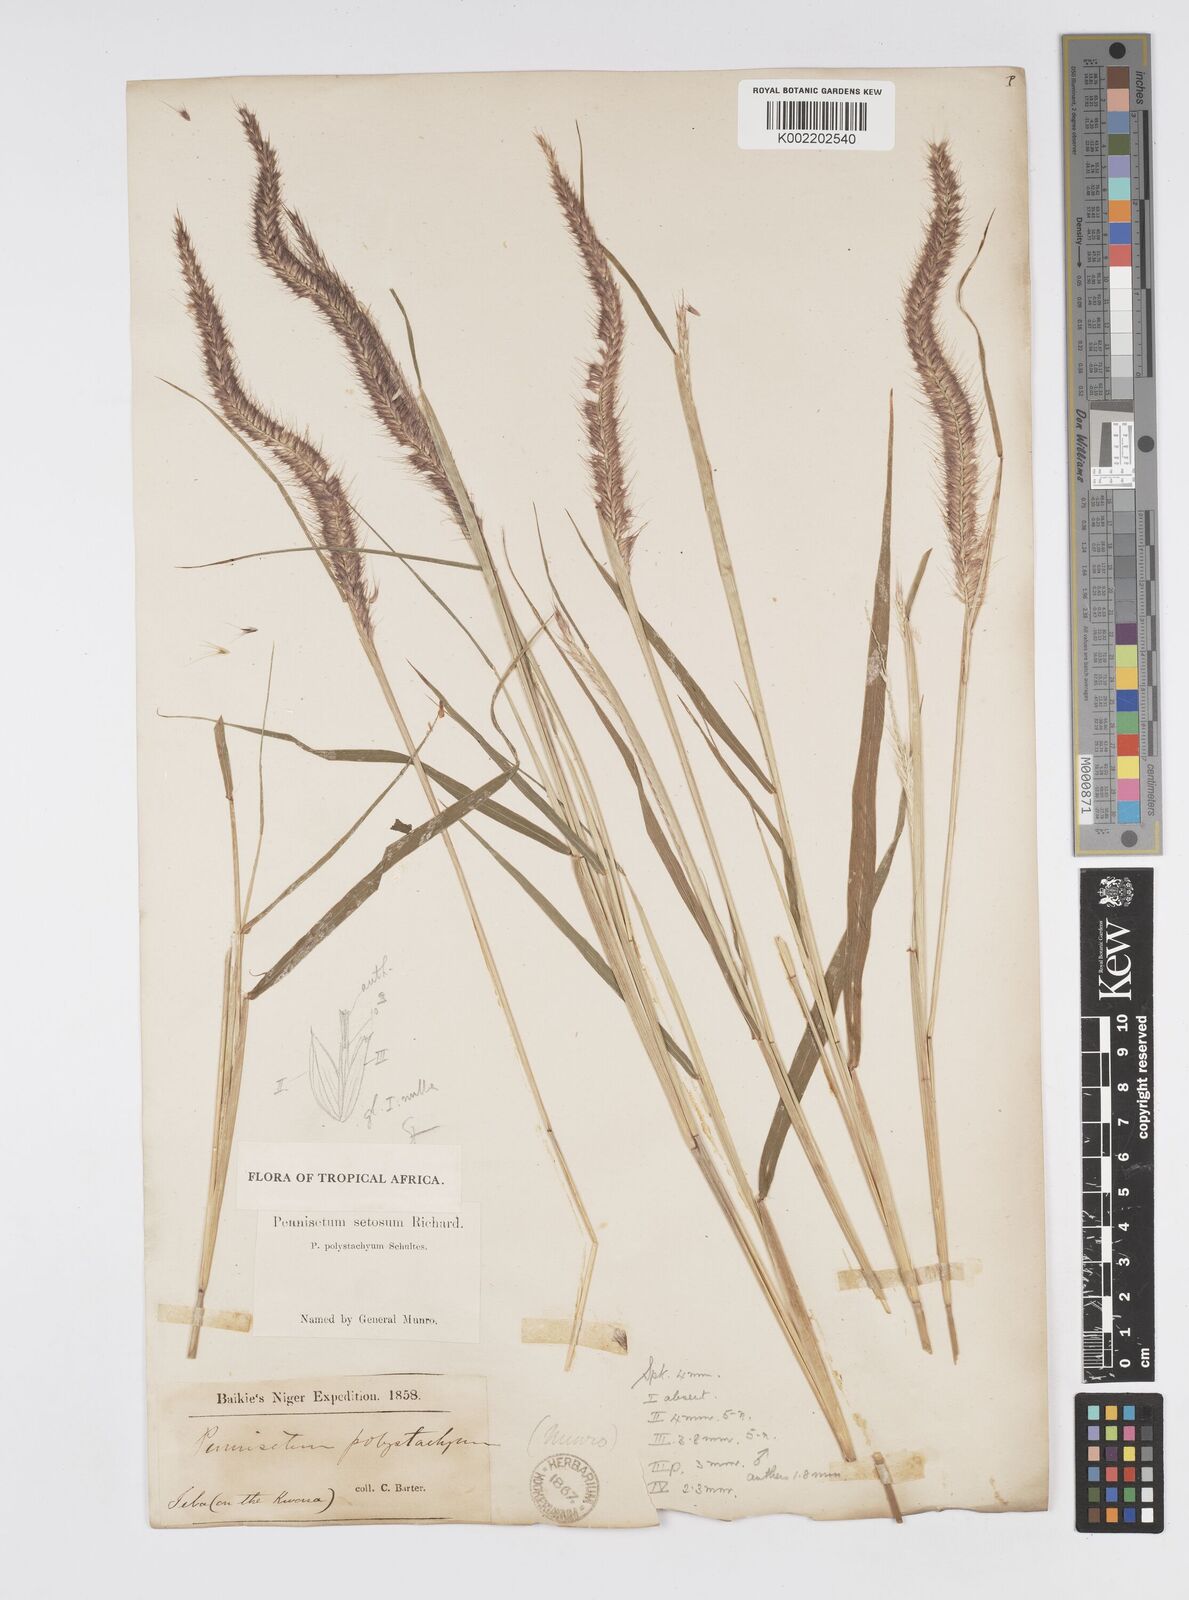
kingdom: Plantae
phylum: Tracheophyta
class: Liliopsida
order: Poales
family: Poaceae
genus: Setaria
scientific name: Setaria parviflora
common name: Knotroot bristle-grass
